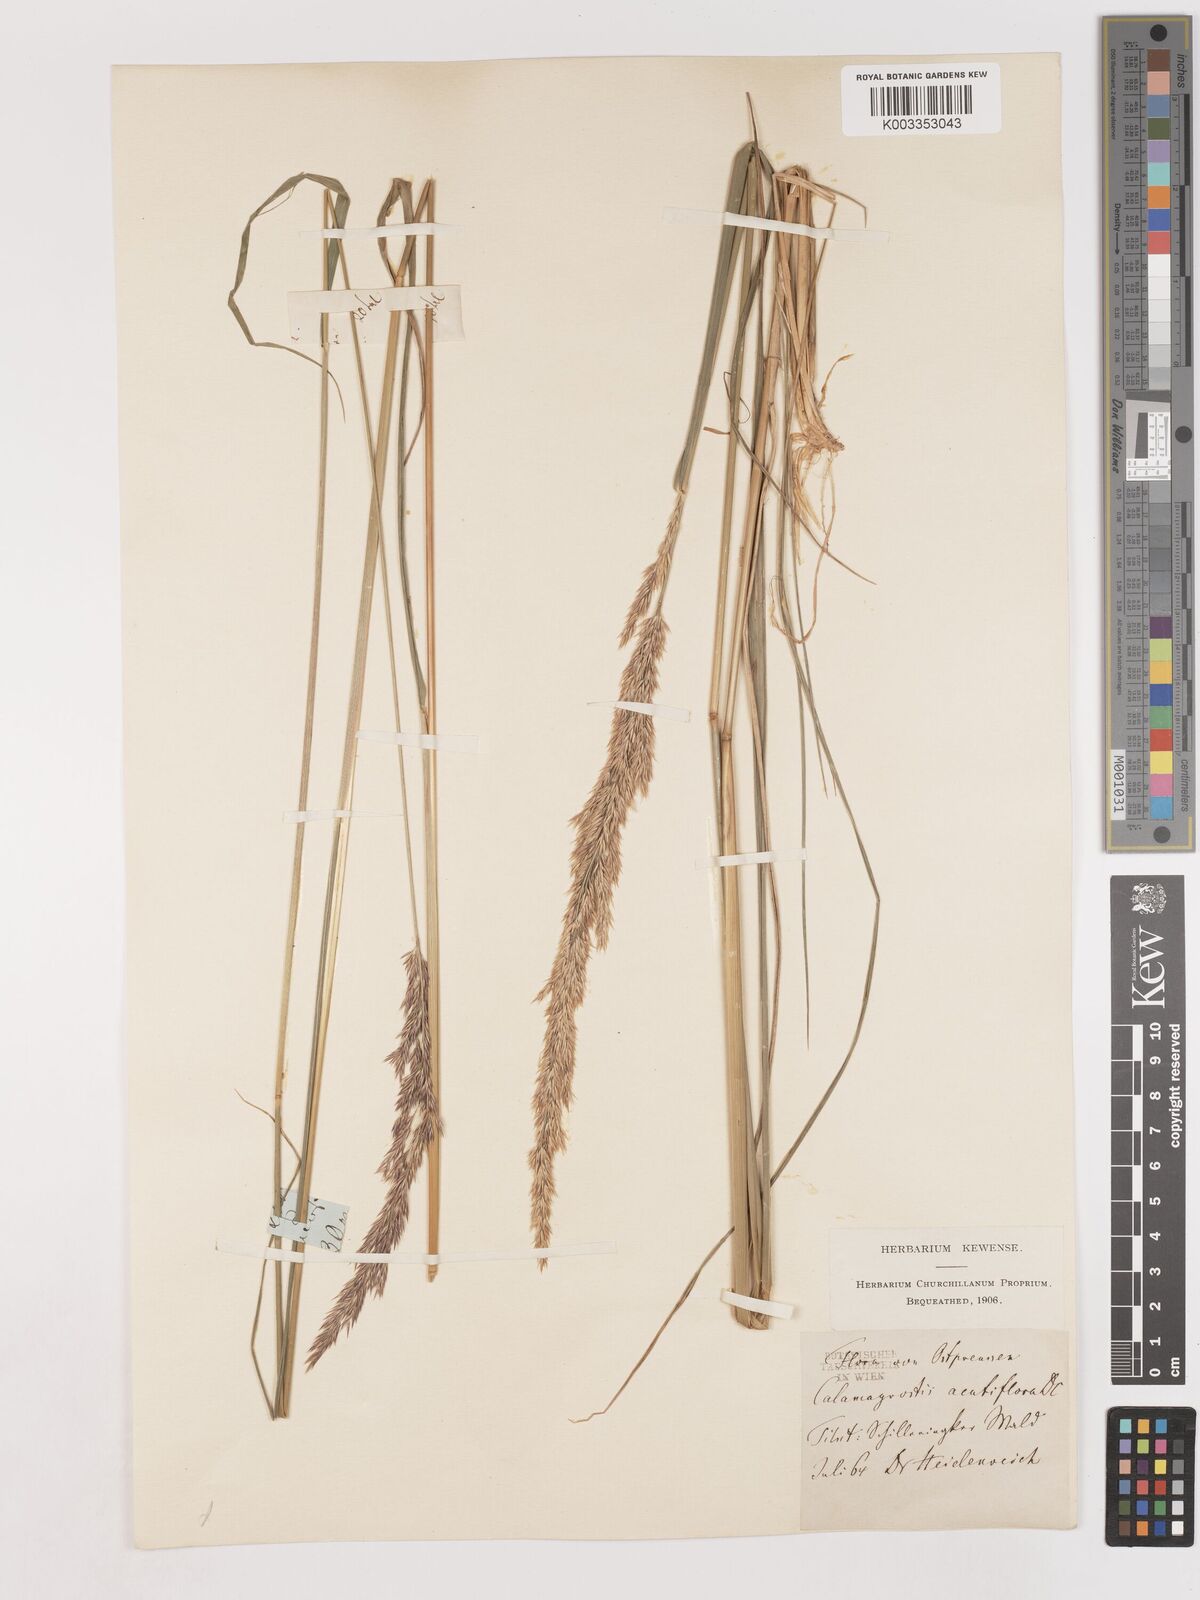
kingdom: Plantae
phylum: Tracheophyta
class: Liliopsida
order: Poales
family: Poaceae
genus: Calamagrostis
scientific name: Calamagrostis epigejos
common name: Wood small-reed
